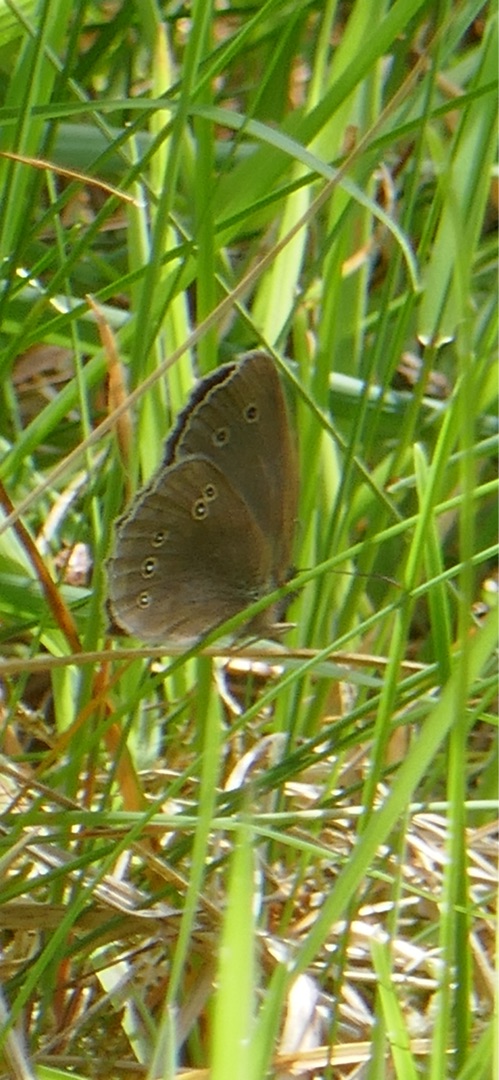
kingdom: Animalia
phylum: Arthropoda
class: Insecta
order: Lepidoptera
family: Nymphalidae
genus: Aphantopus
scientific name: Aphantopus hyperantus
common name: Engrandøje
